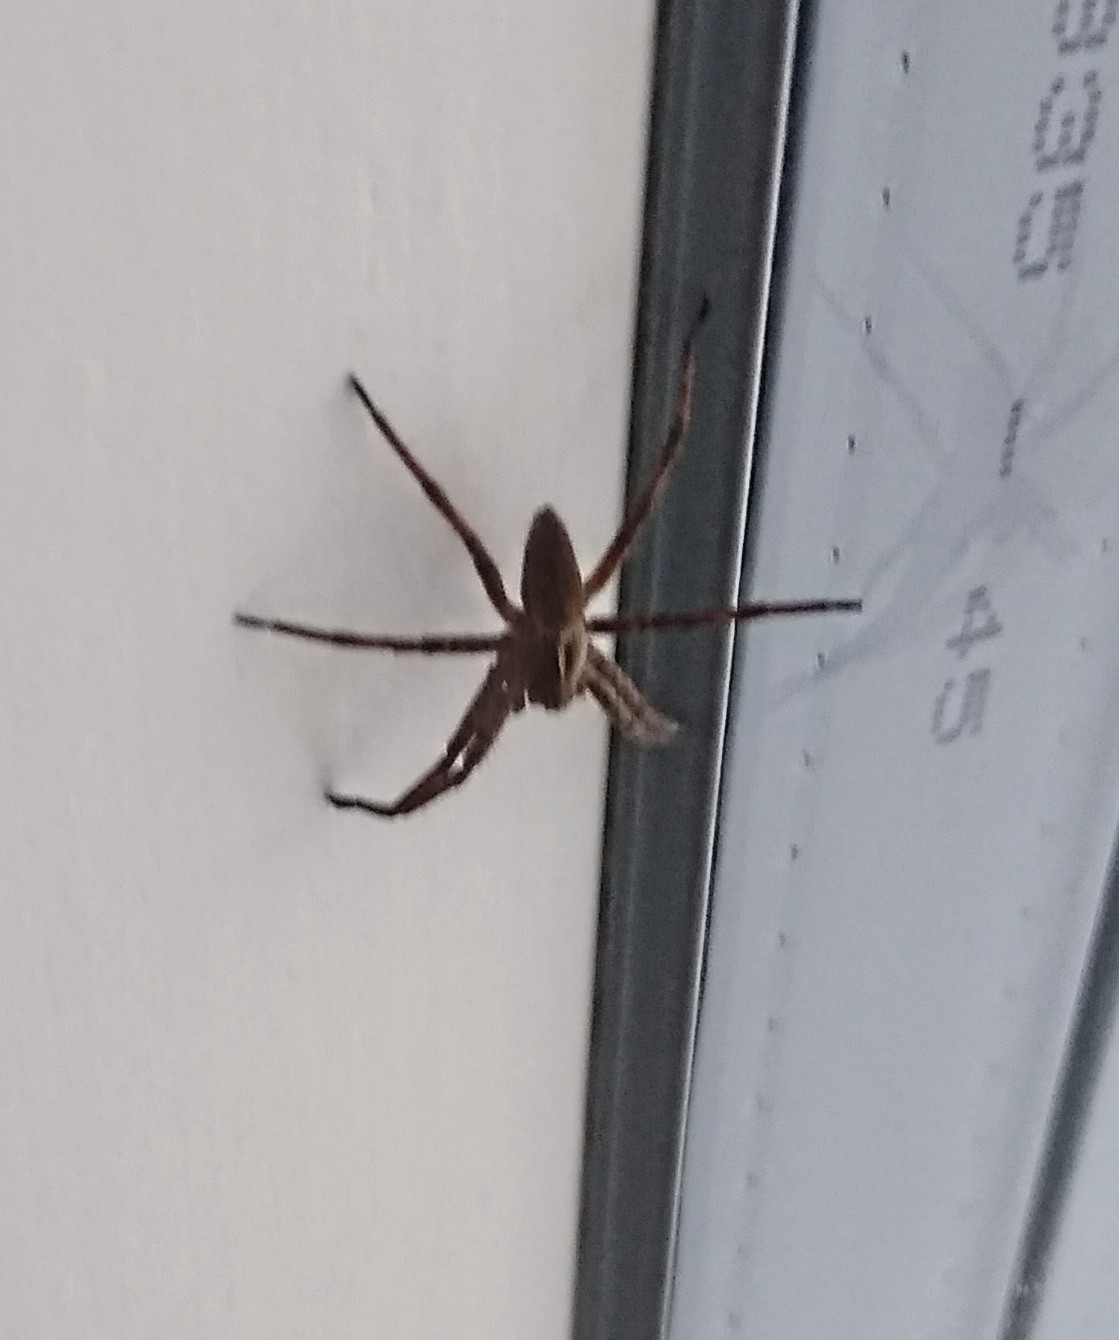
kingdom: Animalia
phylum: Arthropoda
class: Arachnida
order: Araneae
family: Pisauridae
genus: Pisaura
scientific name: Pisaura mirabilis
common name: Almindelig rovedderkop
